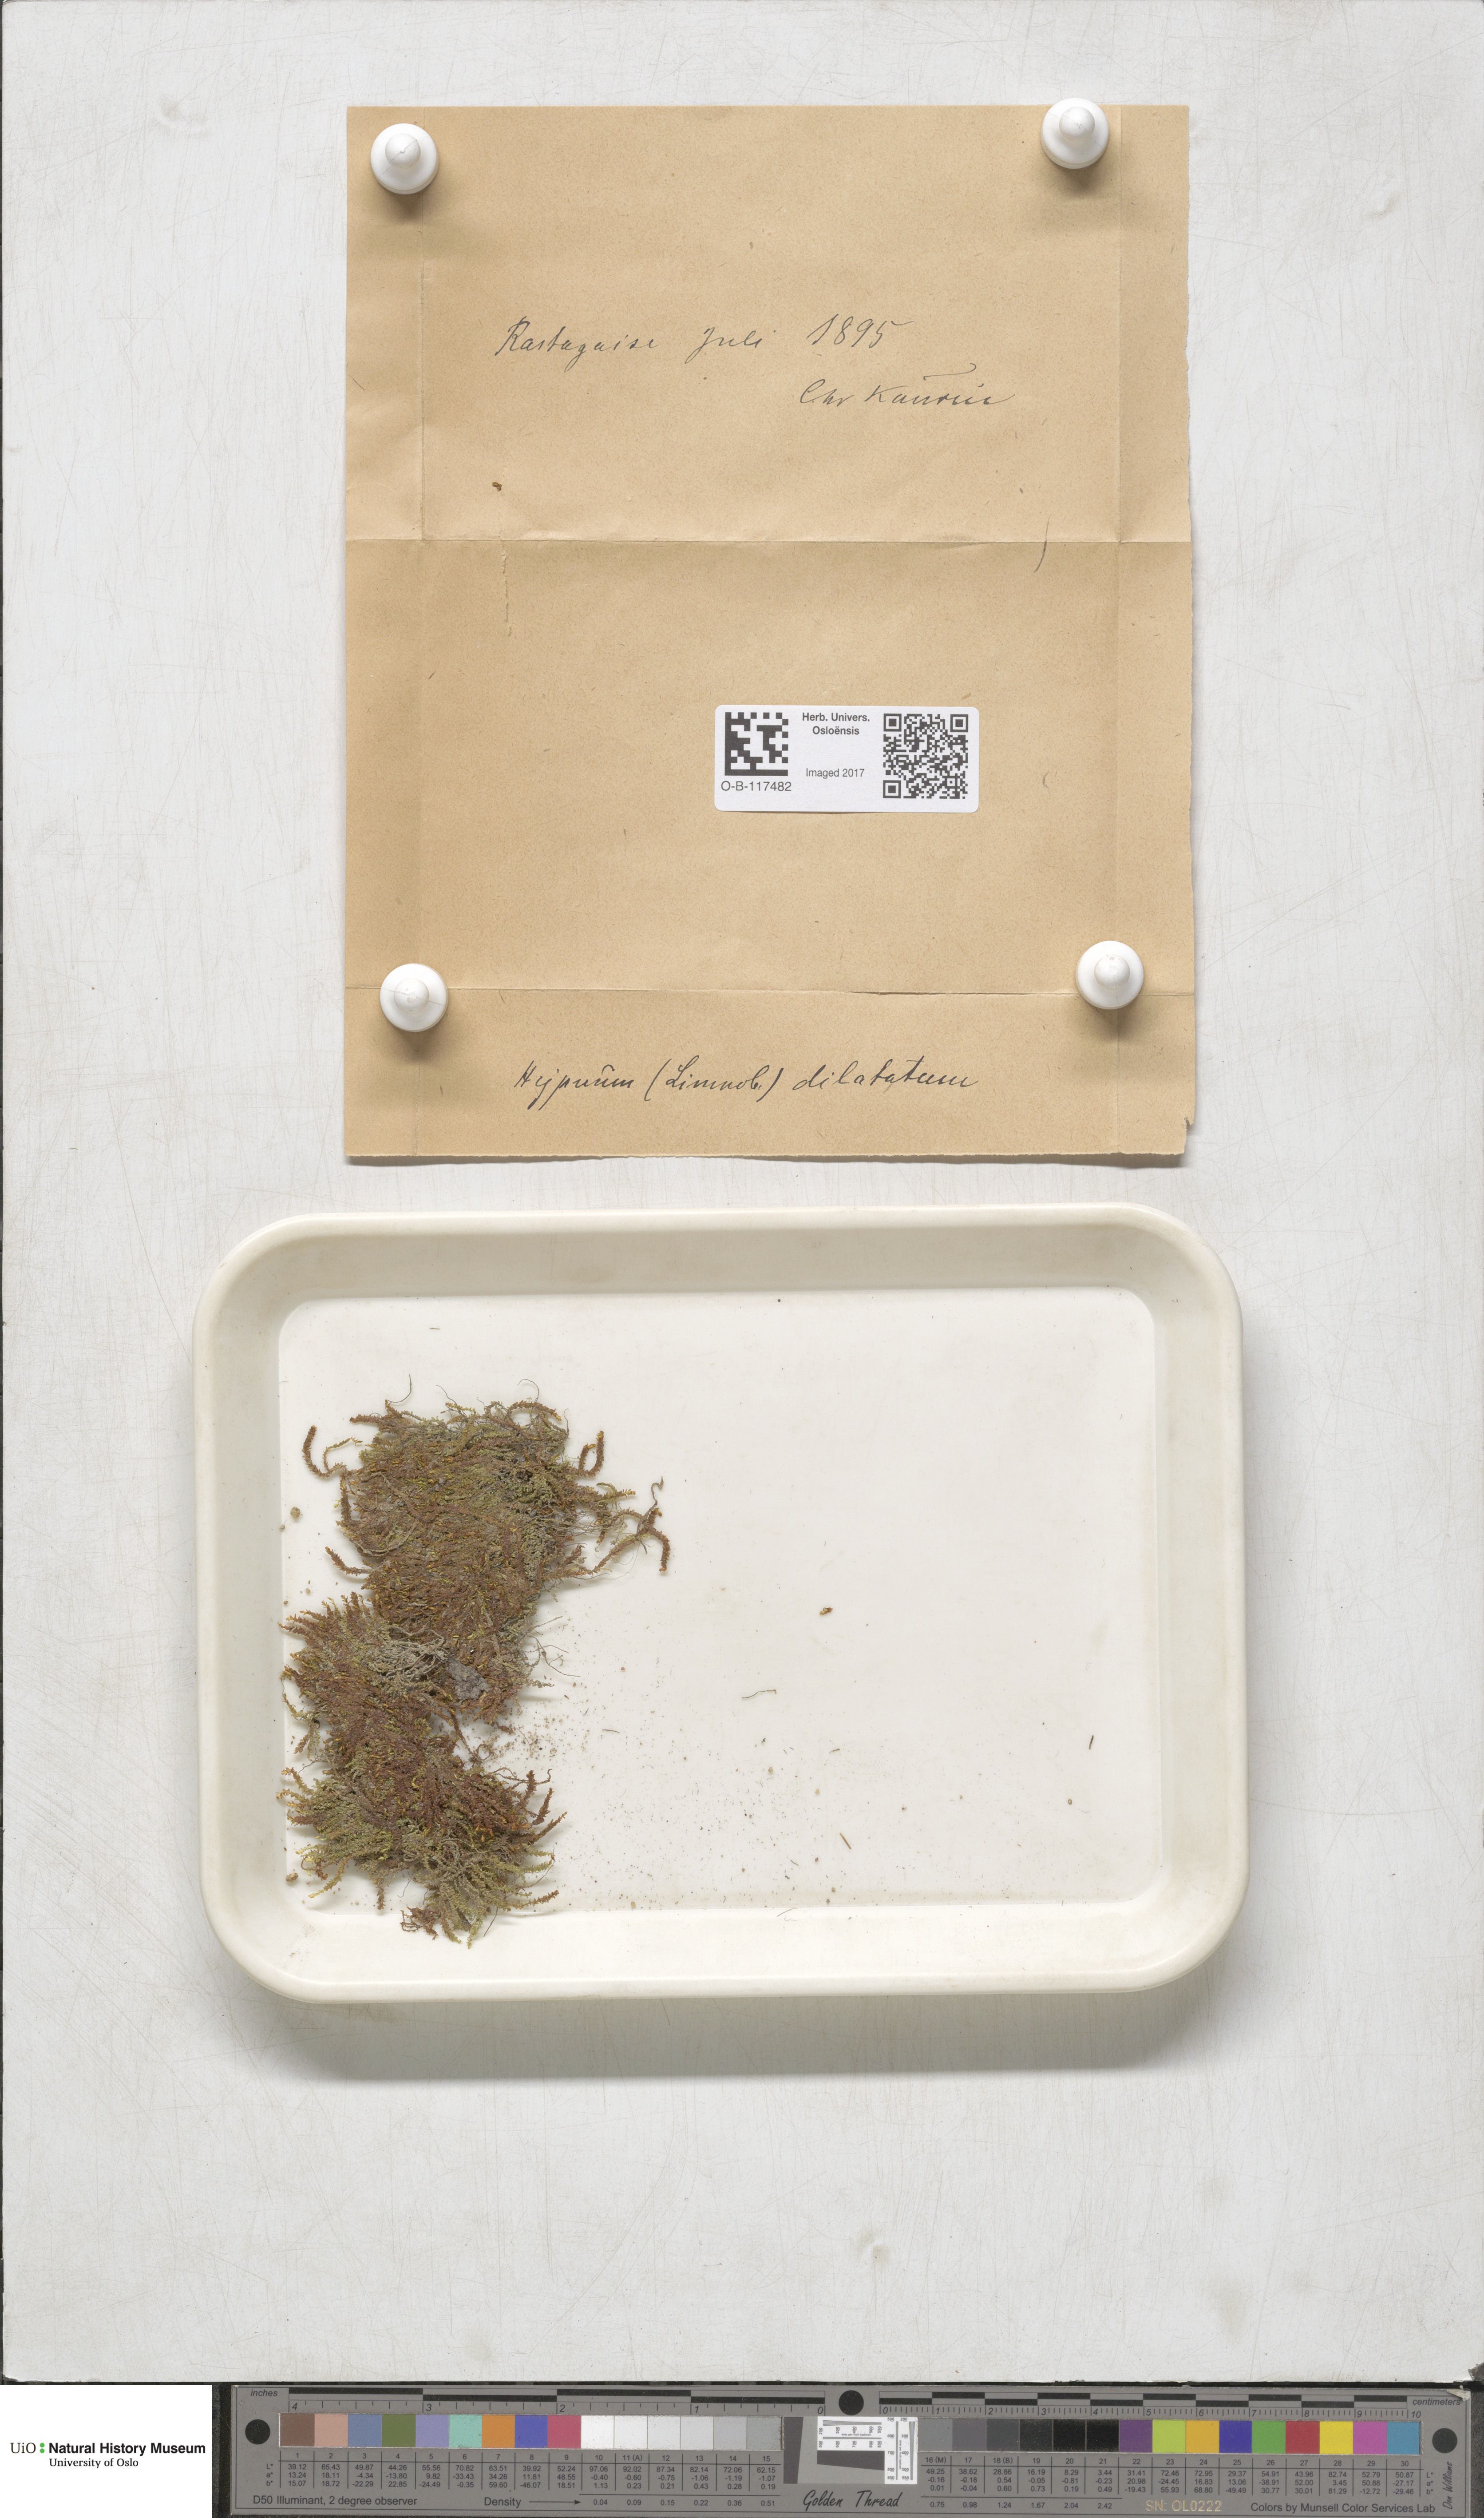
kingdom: Plantae
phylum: Bryophyta
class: Bryopsida
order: Hypnales
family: Amblystegiaceae
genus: Platyhypnum
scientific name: Platyhypnum duriusculum
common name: Broad-leaved brook-moss
